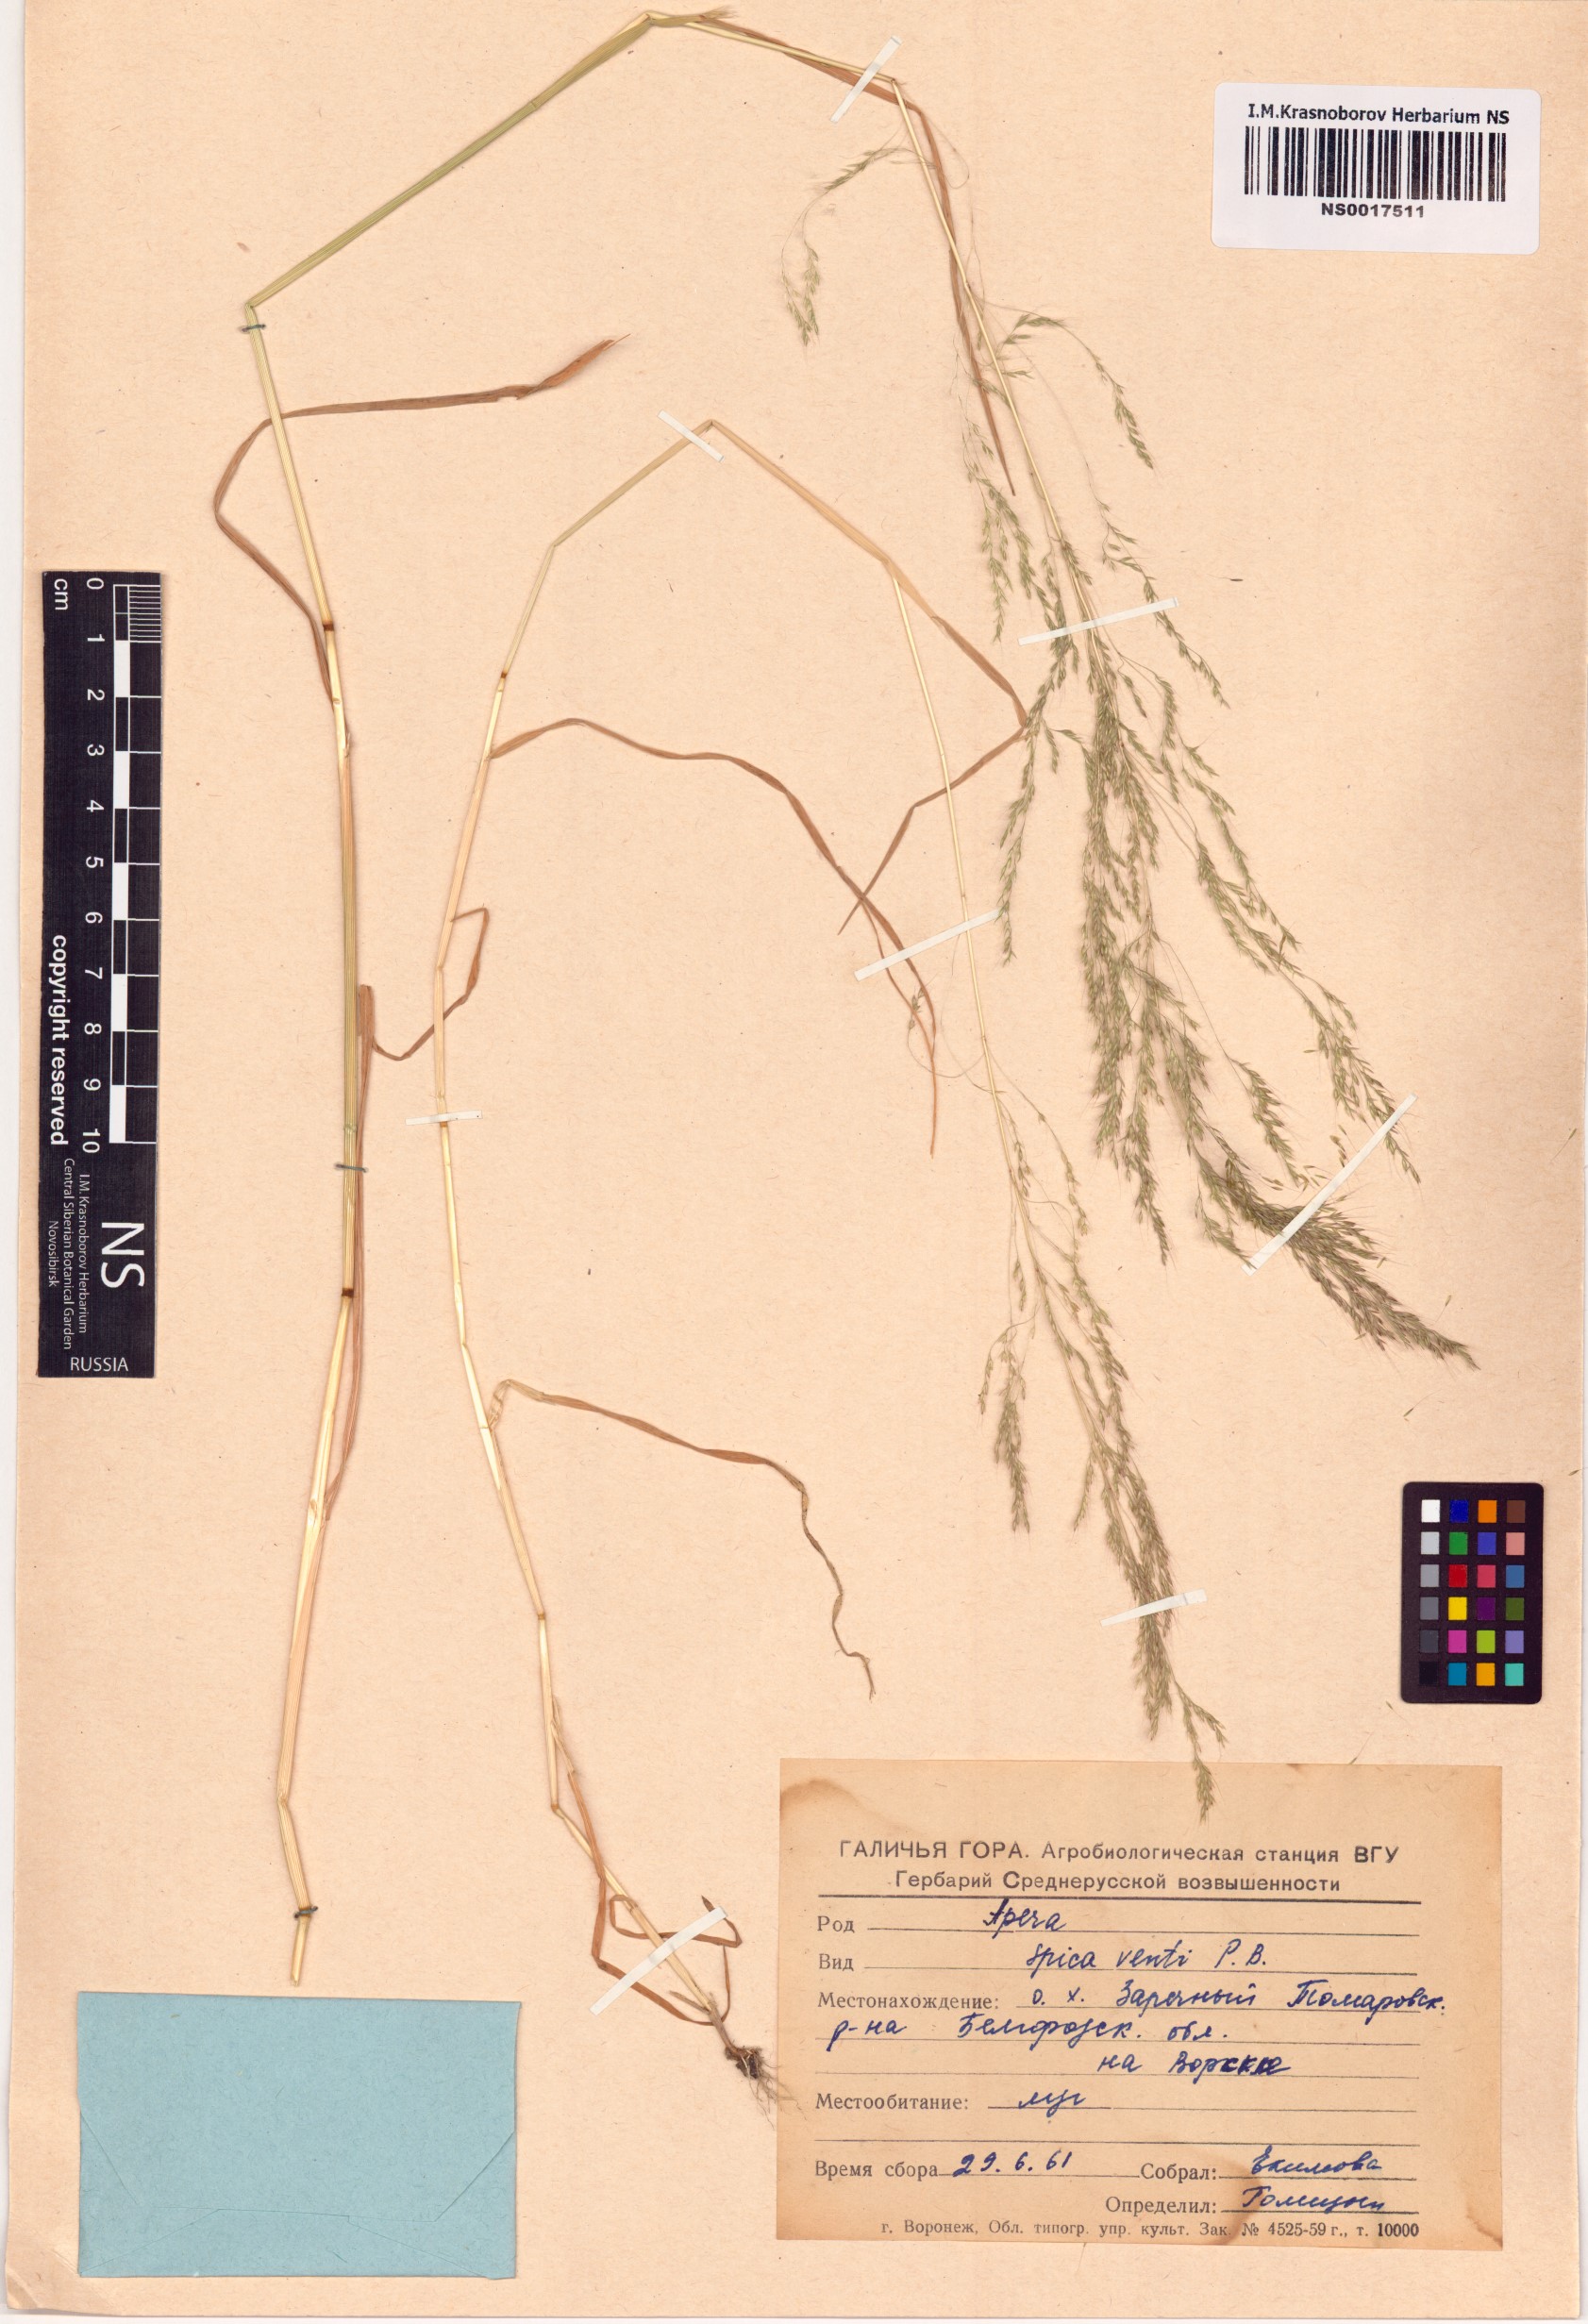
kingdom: Plantae
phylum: Tracheophyta
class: Liliopsida
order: Poales
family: Poaceae
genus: Apera
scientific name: Apera spica-venti
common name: Loose silky-bent
